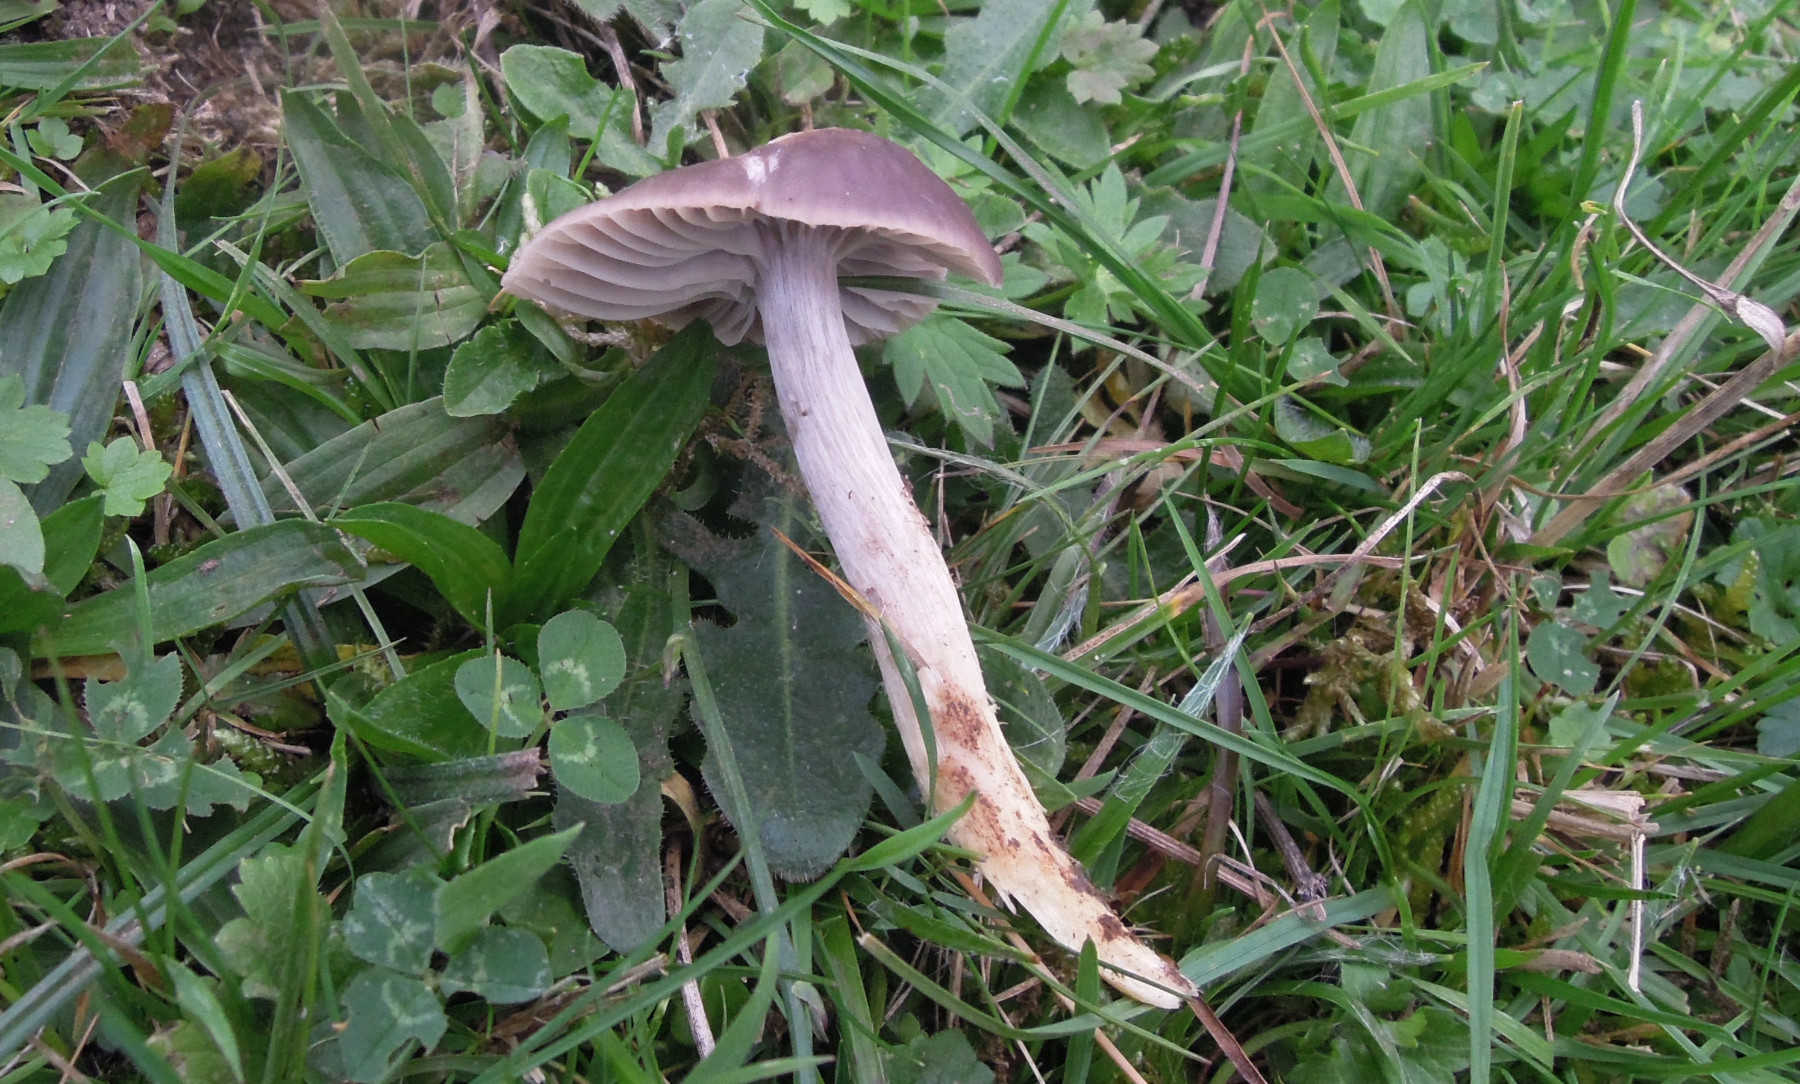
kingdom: Fungi
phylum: Basidiomycota
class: Agaricomycetes
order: Agaricales
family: Hygrophoraceae
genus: Cuphophyllus
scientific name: Cuphophyllus flavipes
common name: gulfodet vokshat
